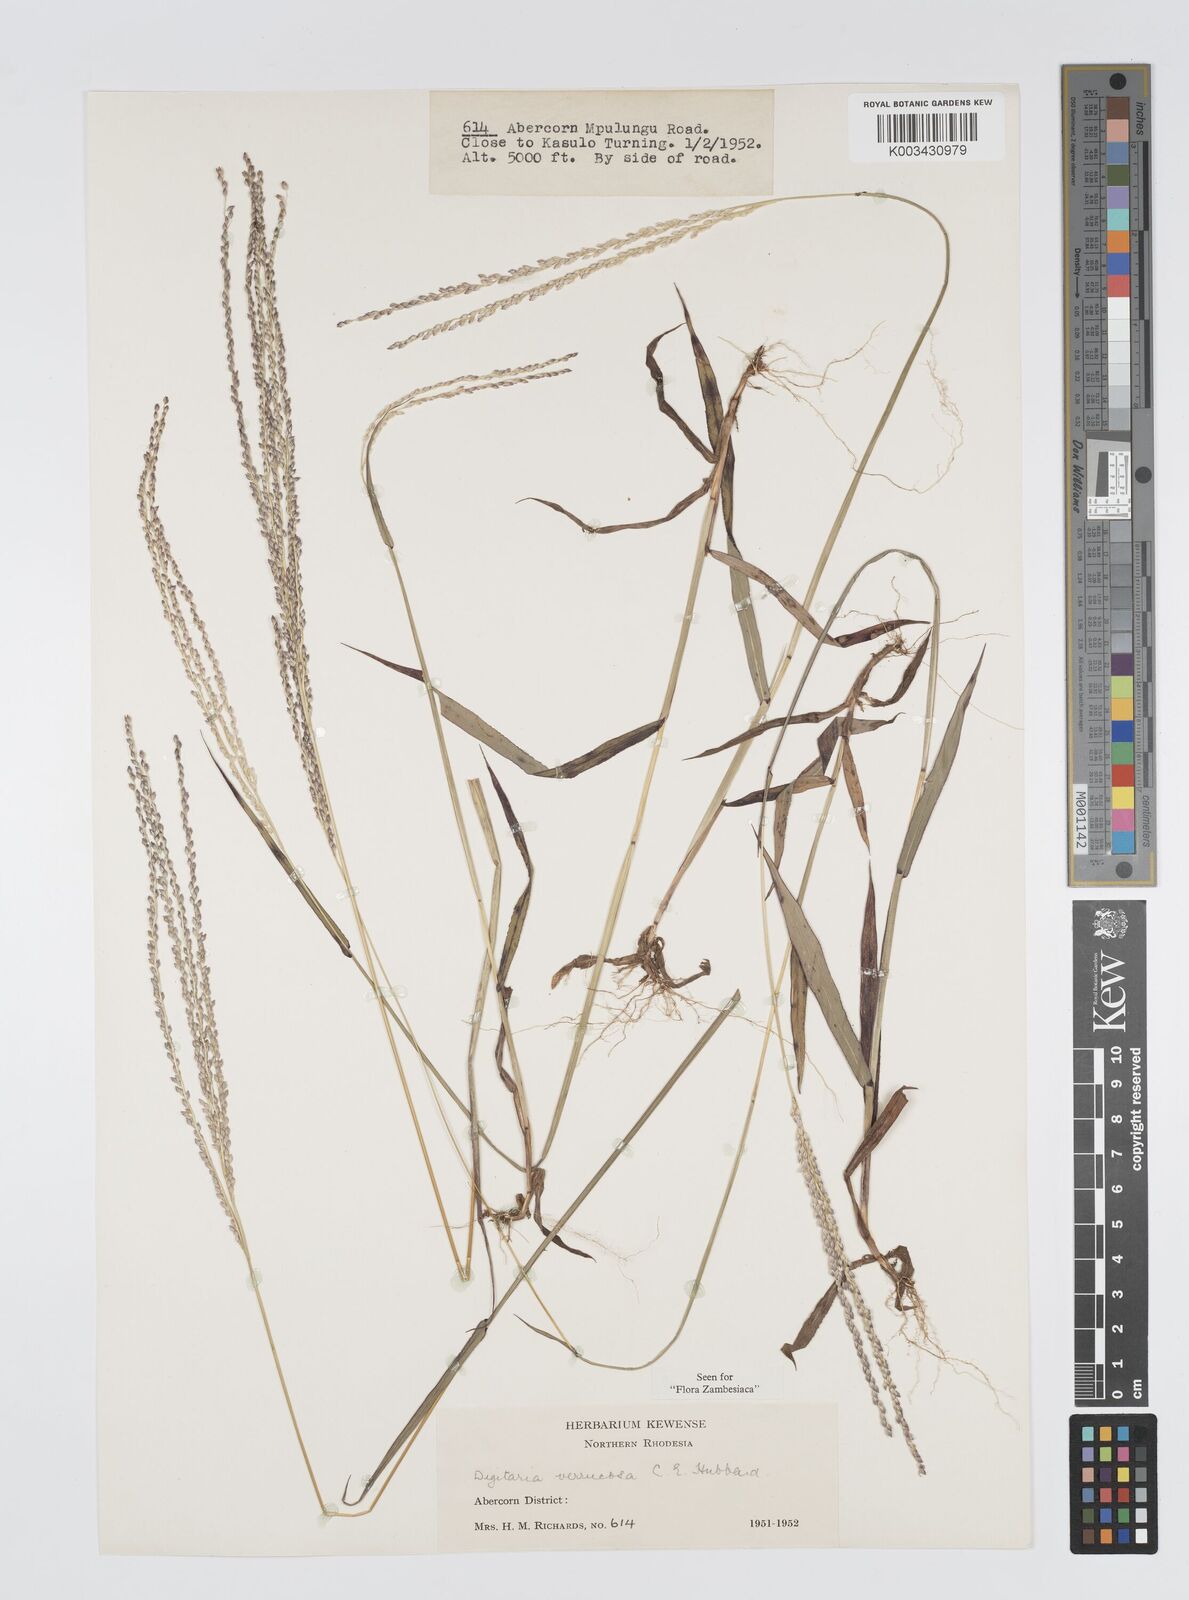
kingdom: Plantae
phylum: Tracheophyta
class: Liliopsida
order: Poales
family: Poaceae
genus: Digitaria
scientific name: Digitaria angolensis
